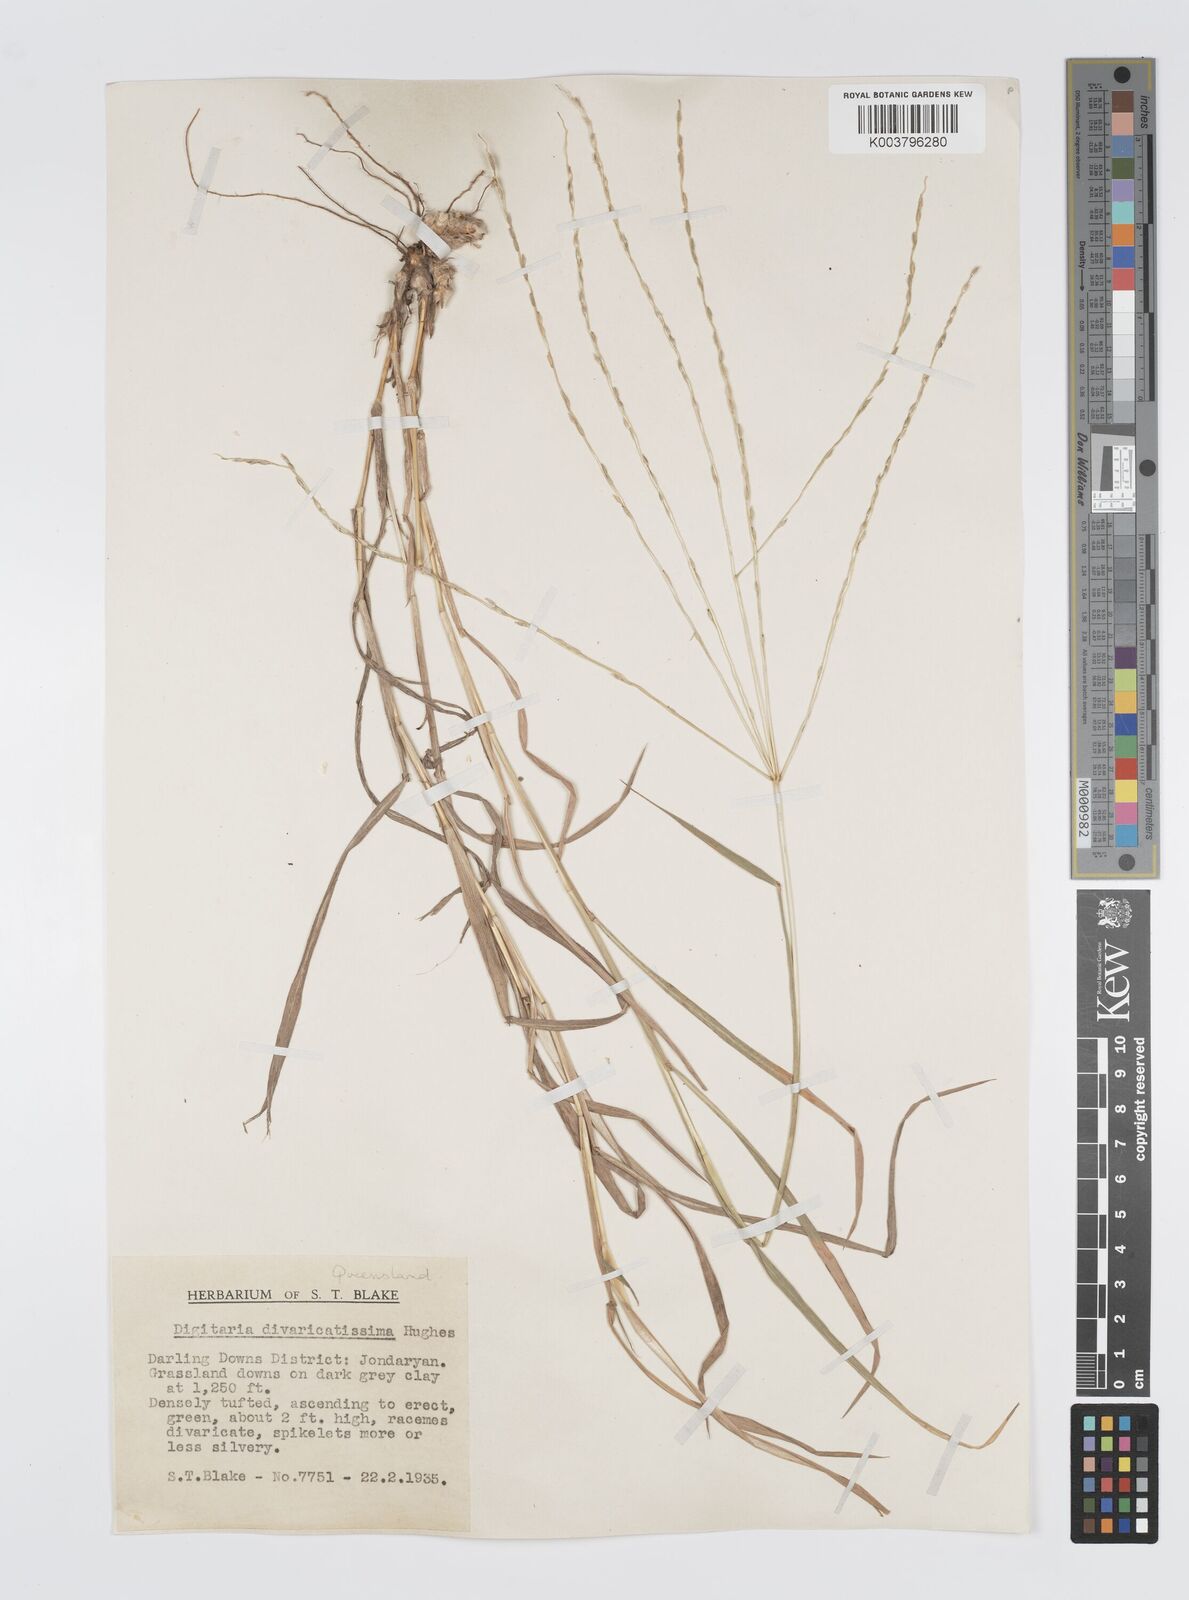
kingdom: Plantae
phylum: Tracheophyta
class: Liliopsida
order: Poales
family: Poaceae
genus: Digitaria
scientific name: Digitaria divaricatissima
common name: Crabgrass
